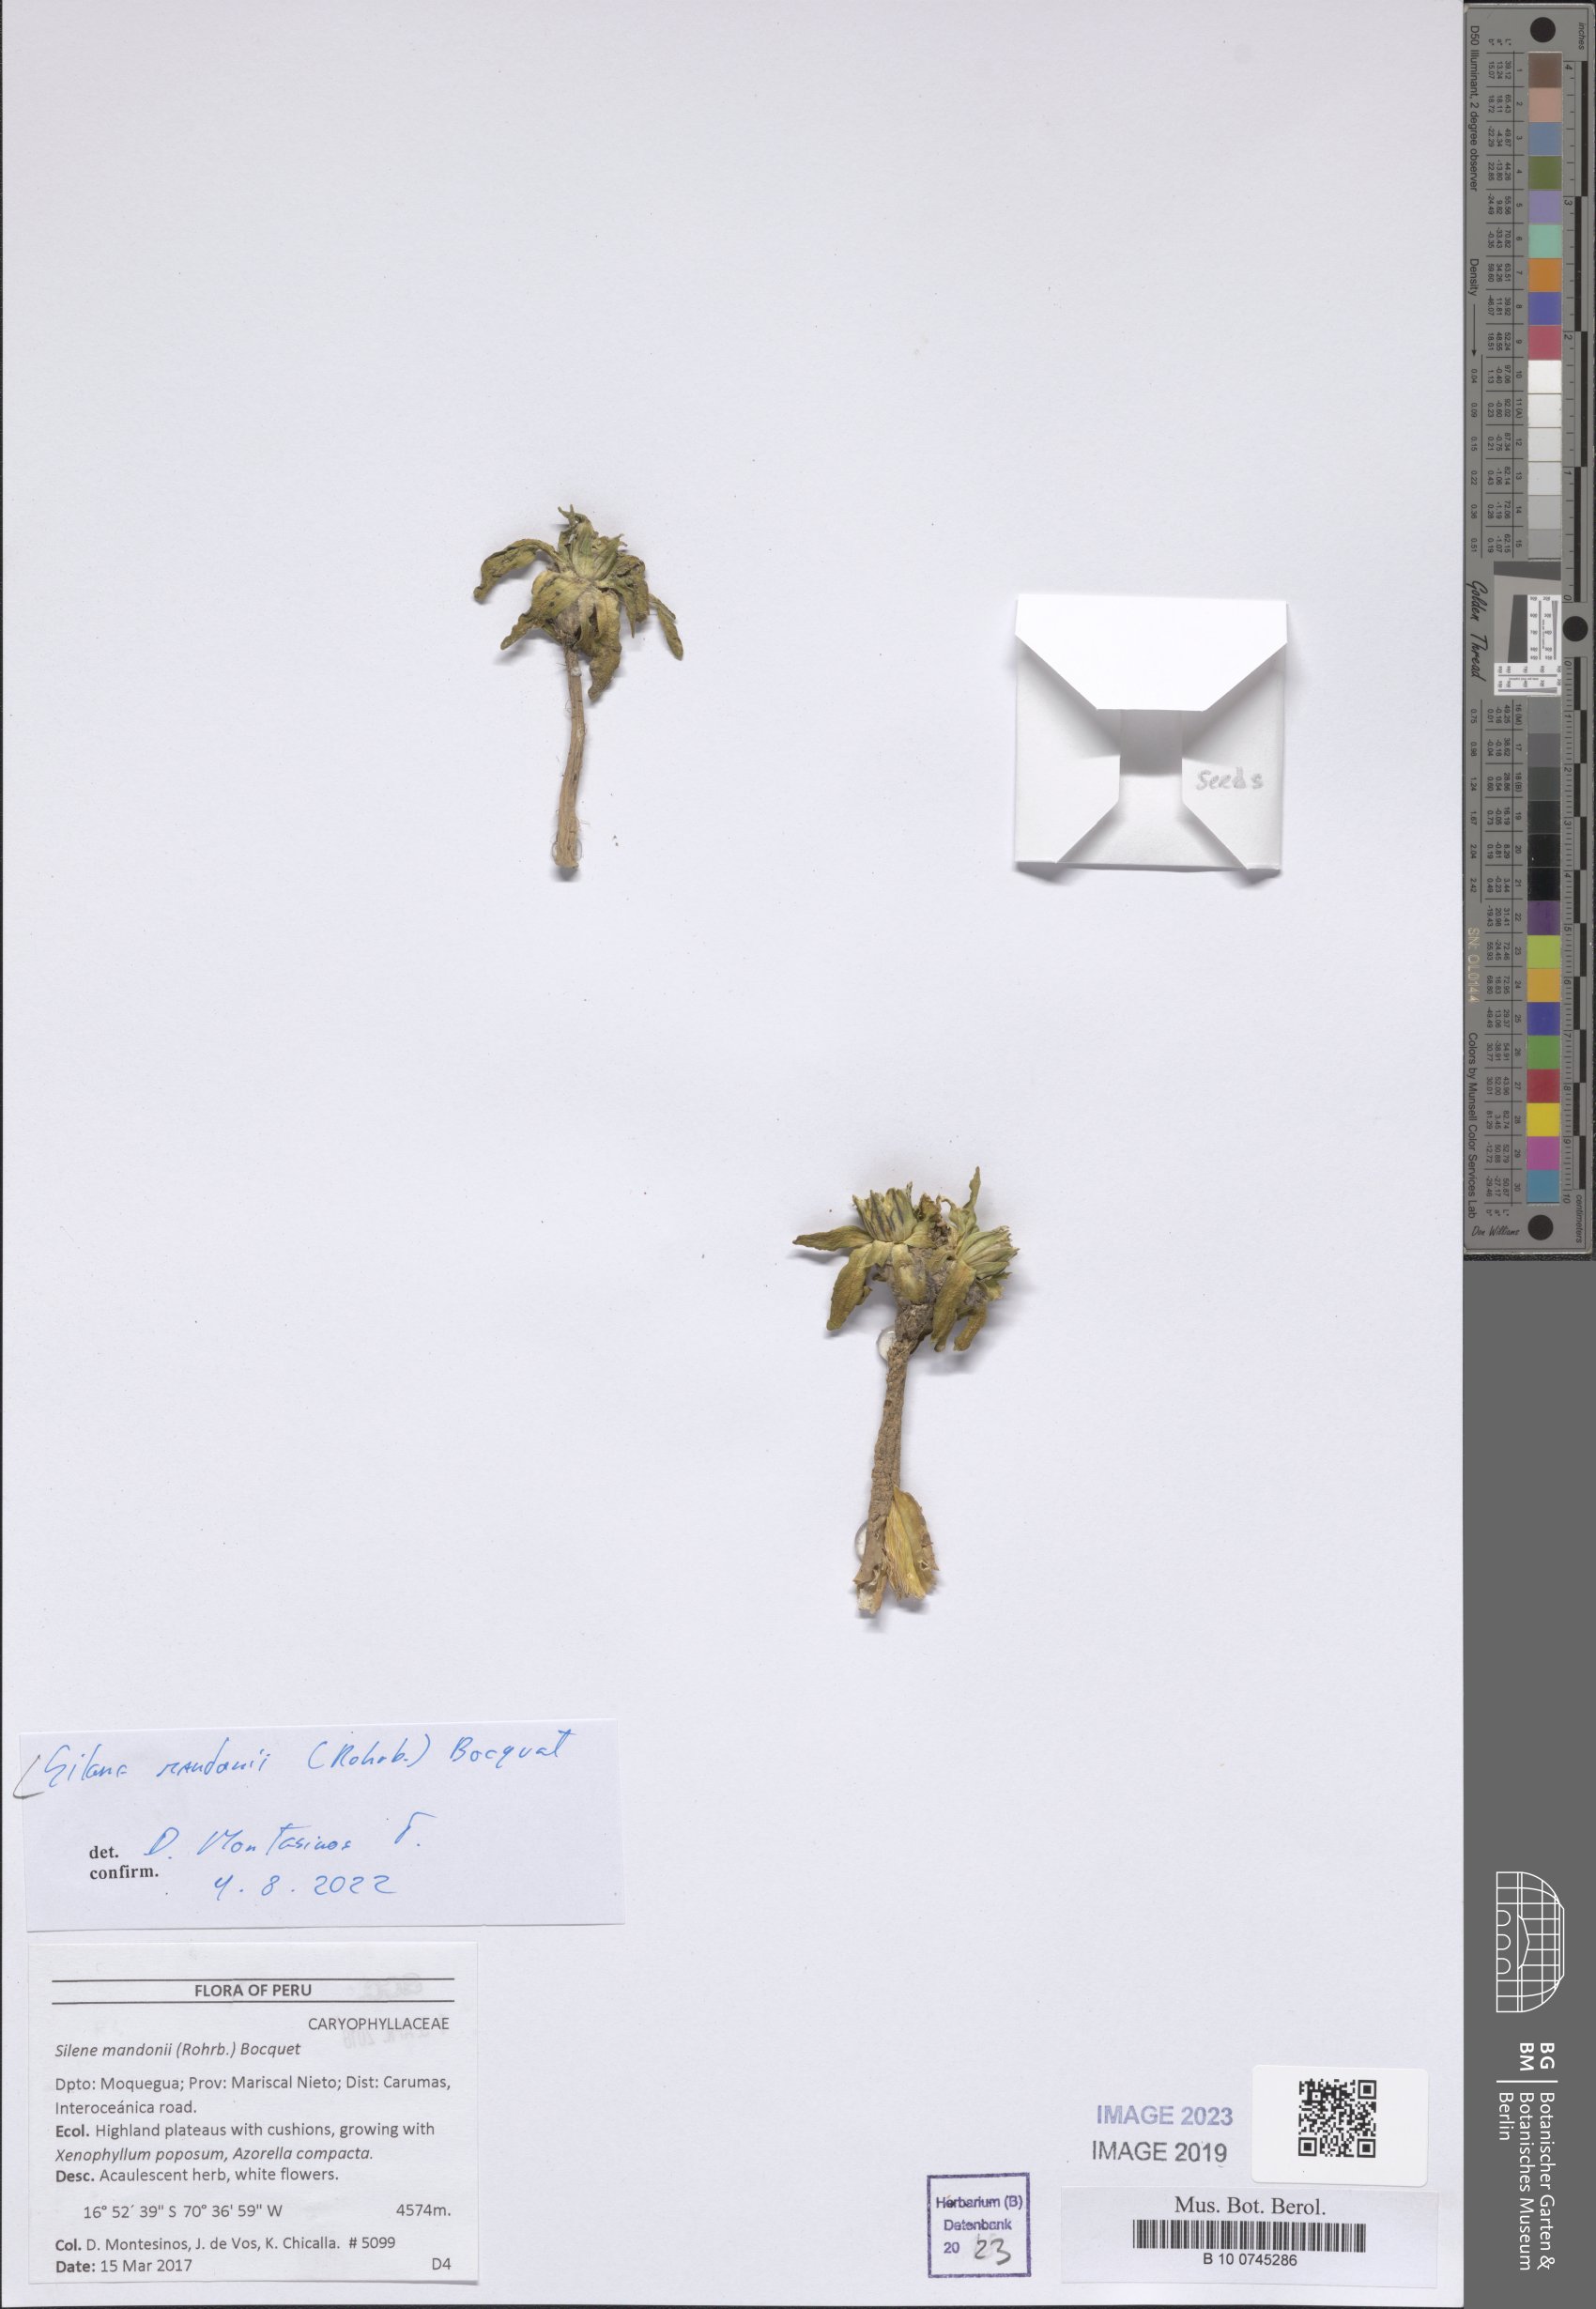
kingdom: Plantae
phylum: Tracheophyta
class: Magnoliopsida
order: Caryophyllales
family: Caryophyllaceae
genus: Silene
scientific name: Silene mandonii
